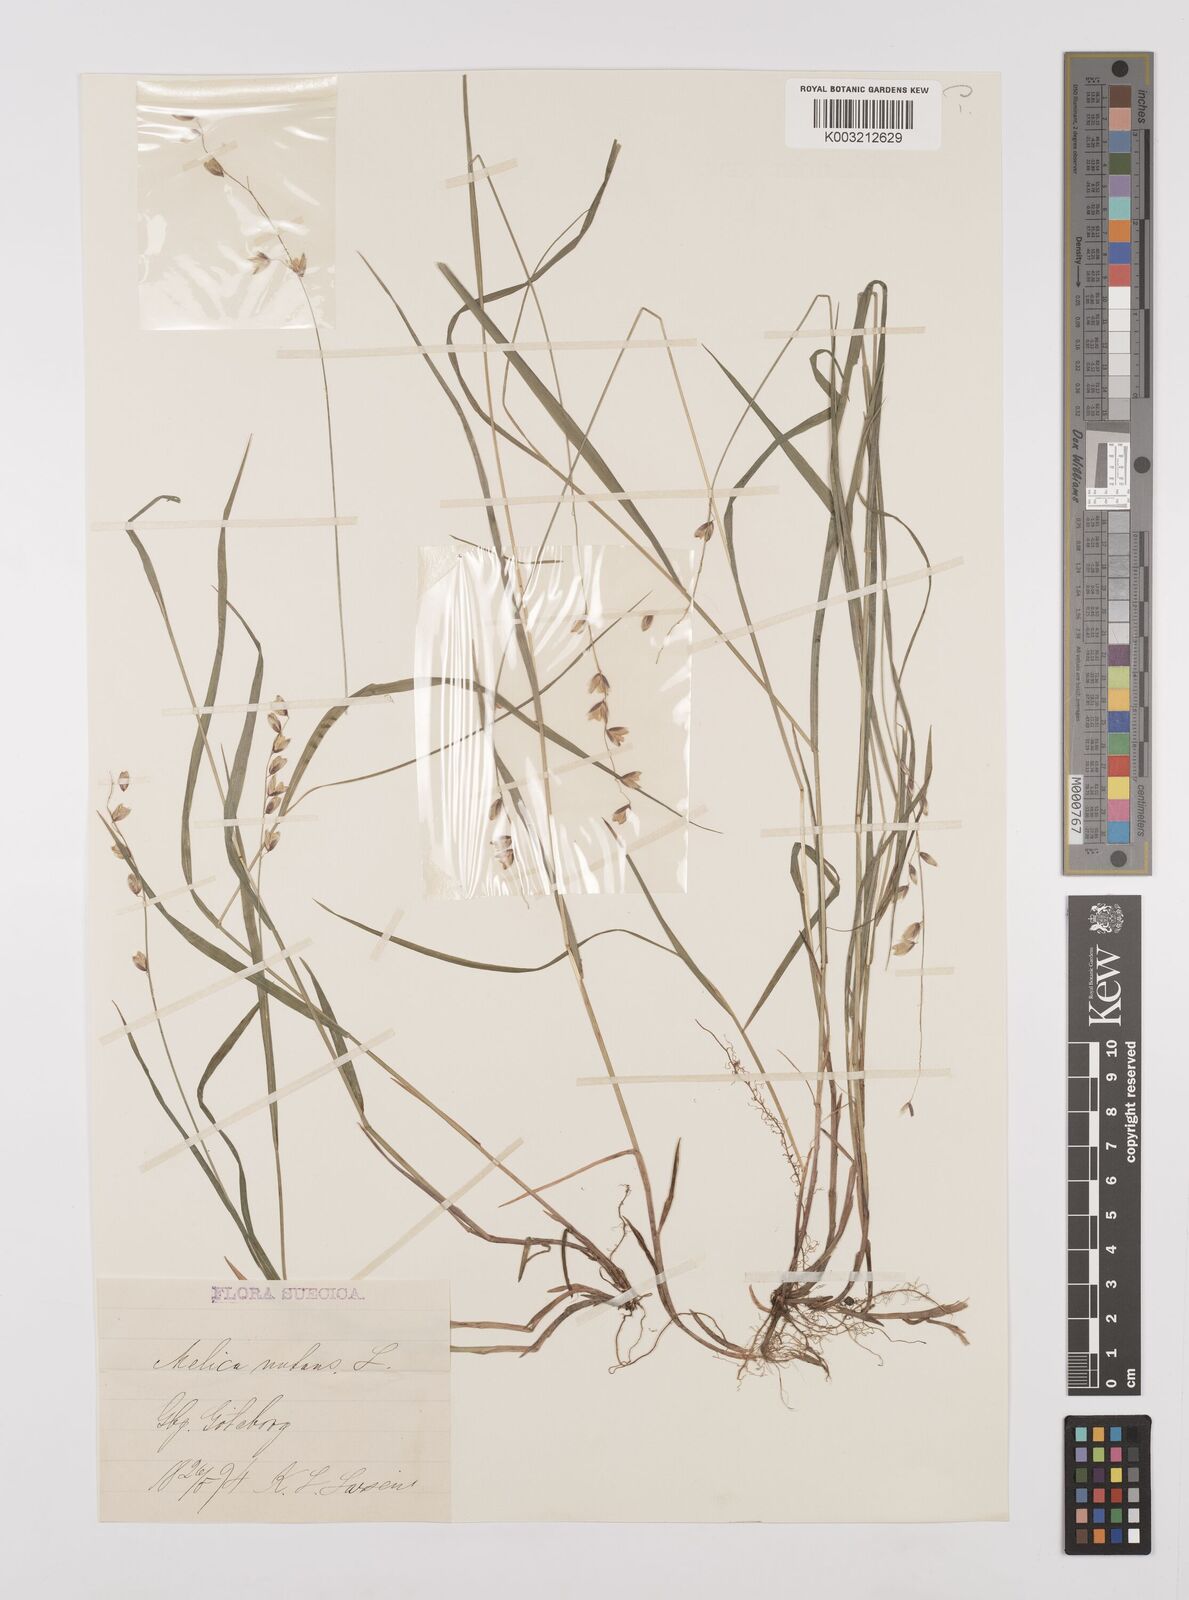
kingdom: Plantae
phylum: Tracheophyta
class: Liliopsida
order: Poales
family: Poaceae
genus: Melica
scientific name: Melica
